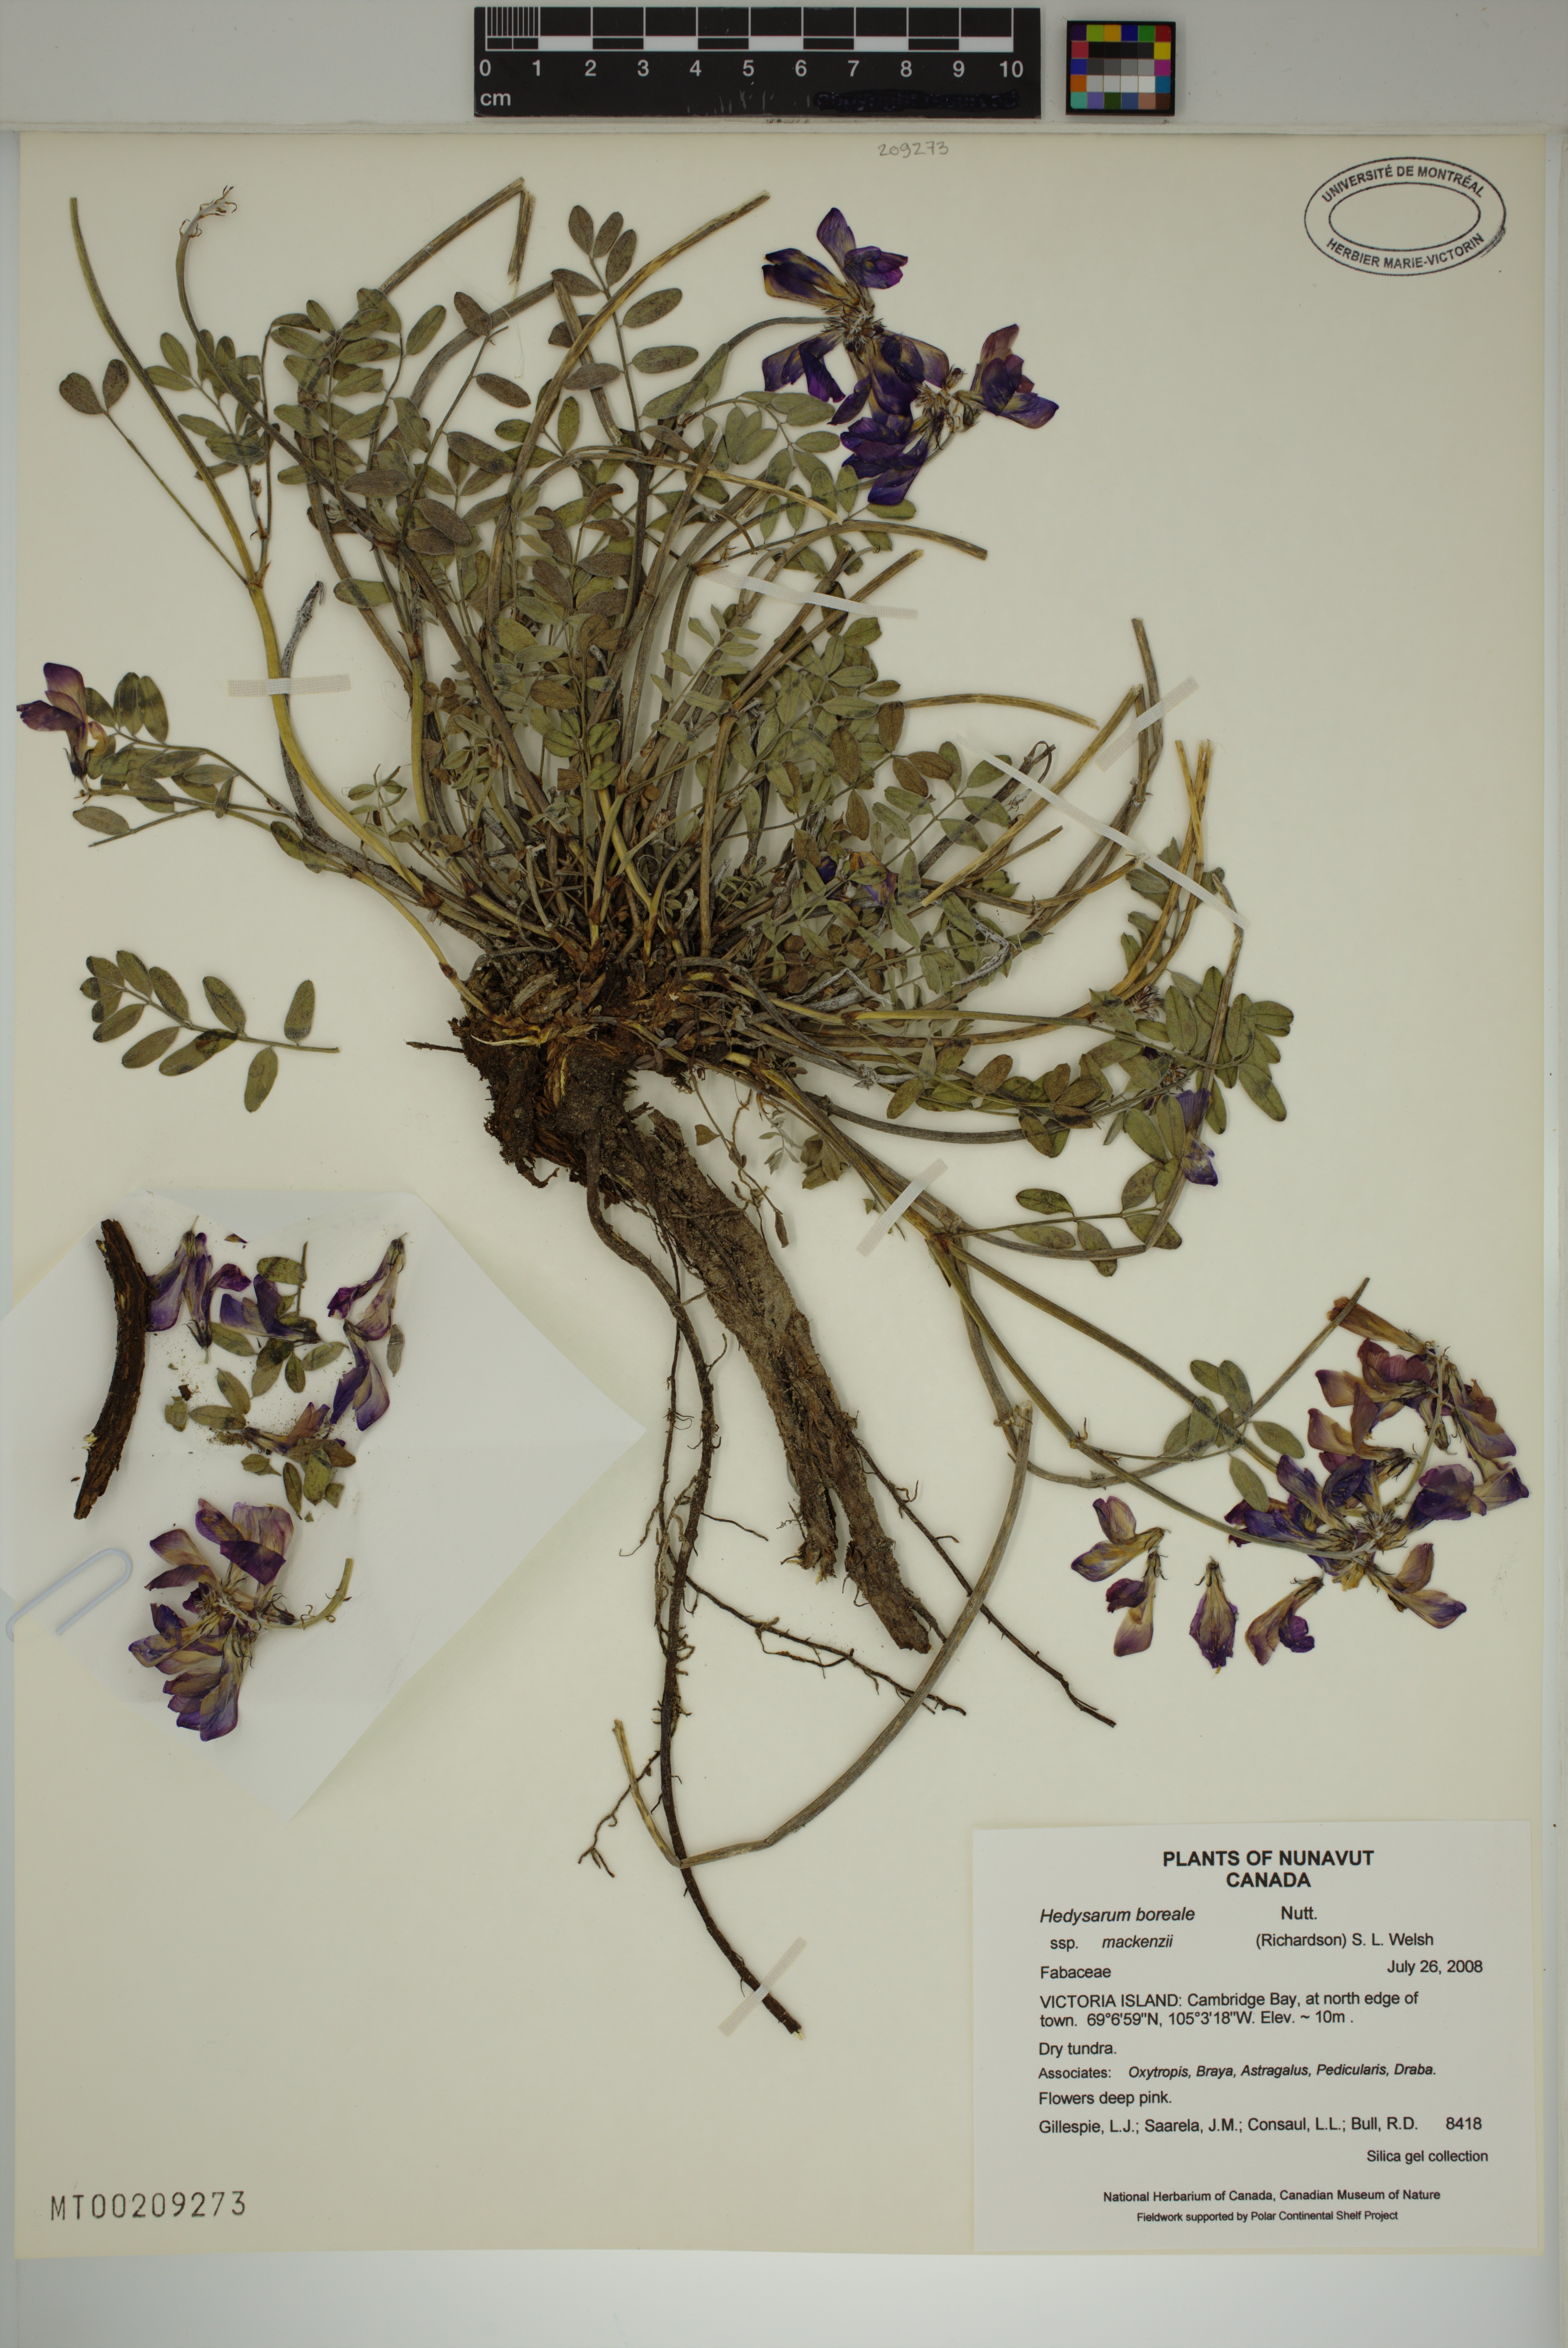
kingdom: Plantae
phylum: Tracheophyta
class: Magnoliopsida
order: Fabales
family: Fabaceae
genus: Hedysarum
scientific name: Hedysarum boreale
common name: Northern sweet-vetch
